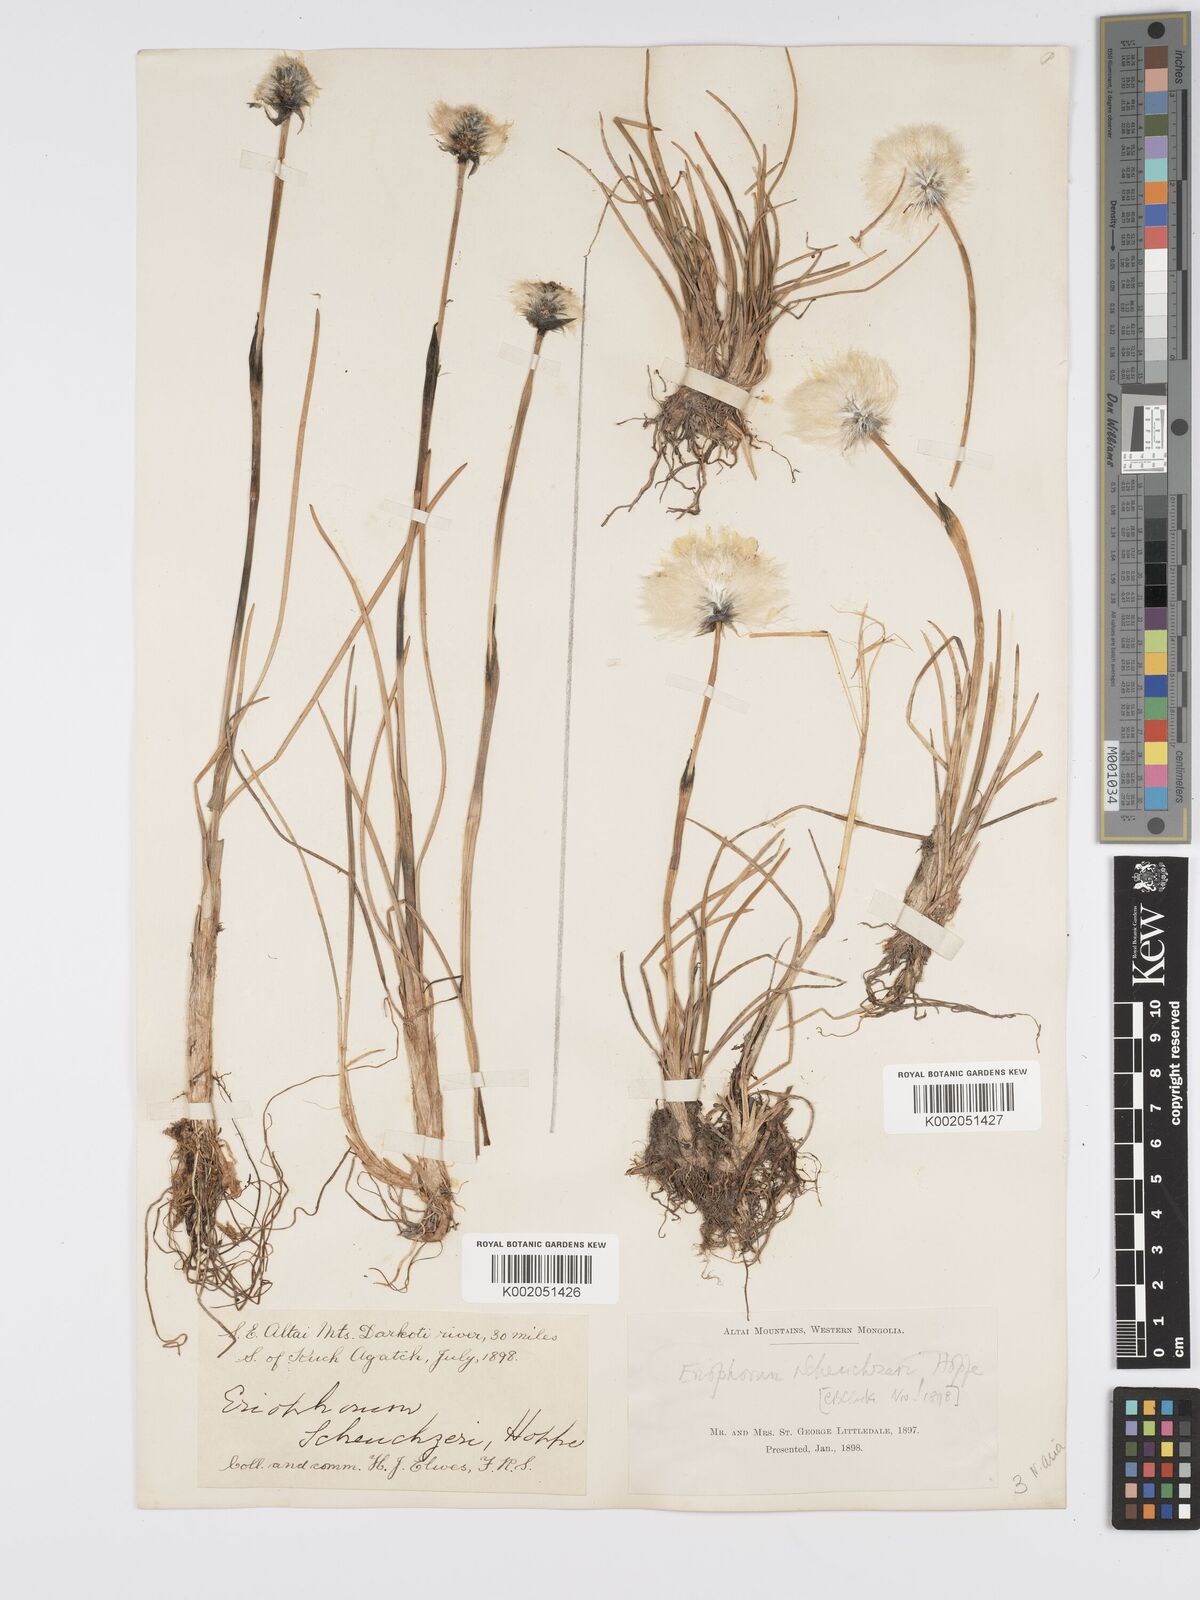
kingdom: Plantae
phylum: Tracheophyta
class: Liliopsida
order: Poales
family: Cyperaceae
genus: Eriophorum
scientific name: Eriophorum scheuchzeri
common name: Scheuchzer's cottongrass
